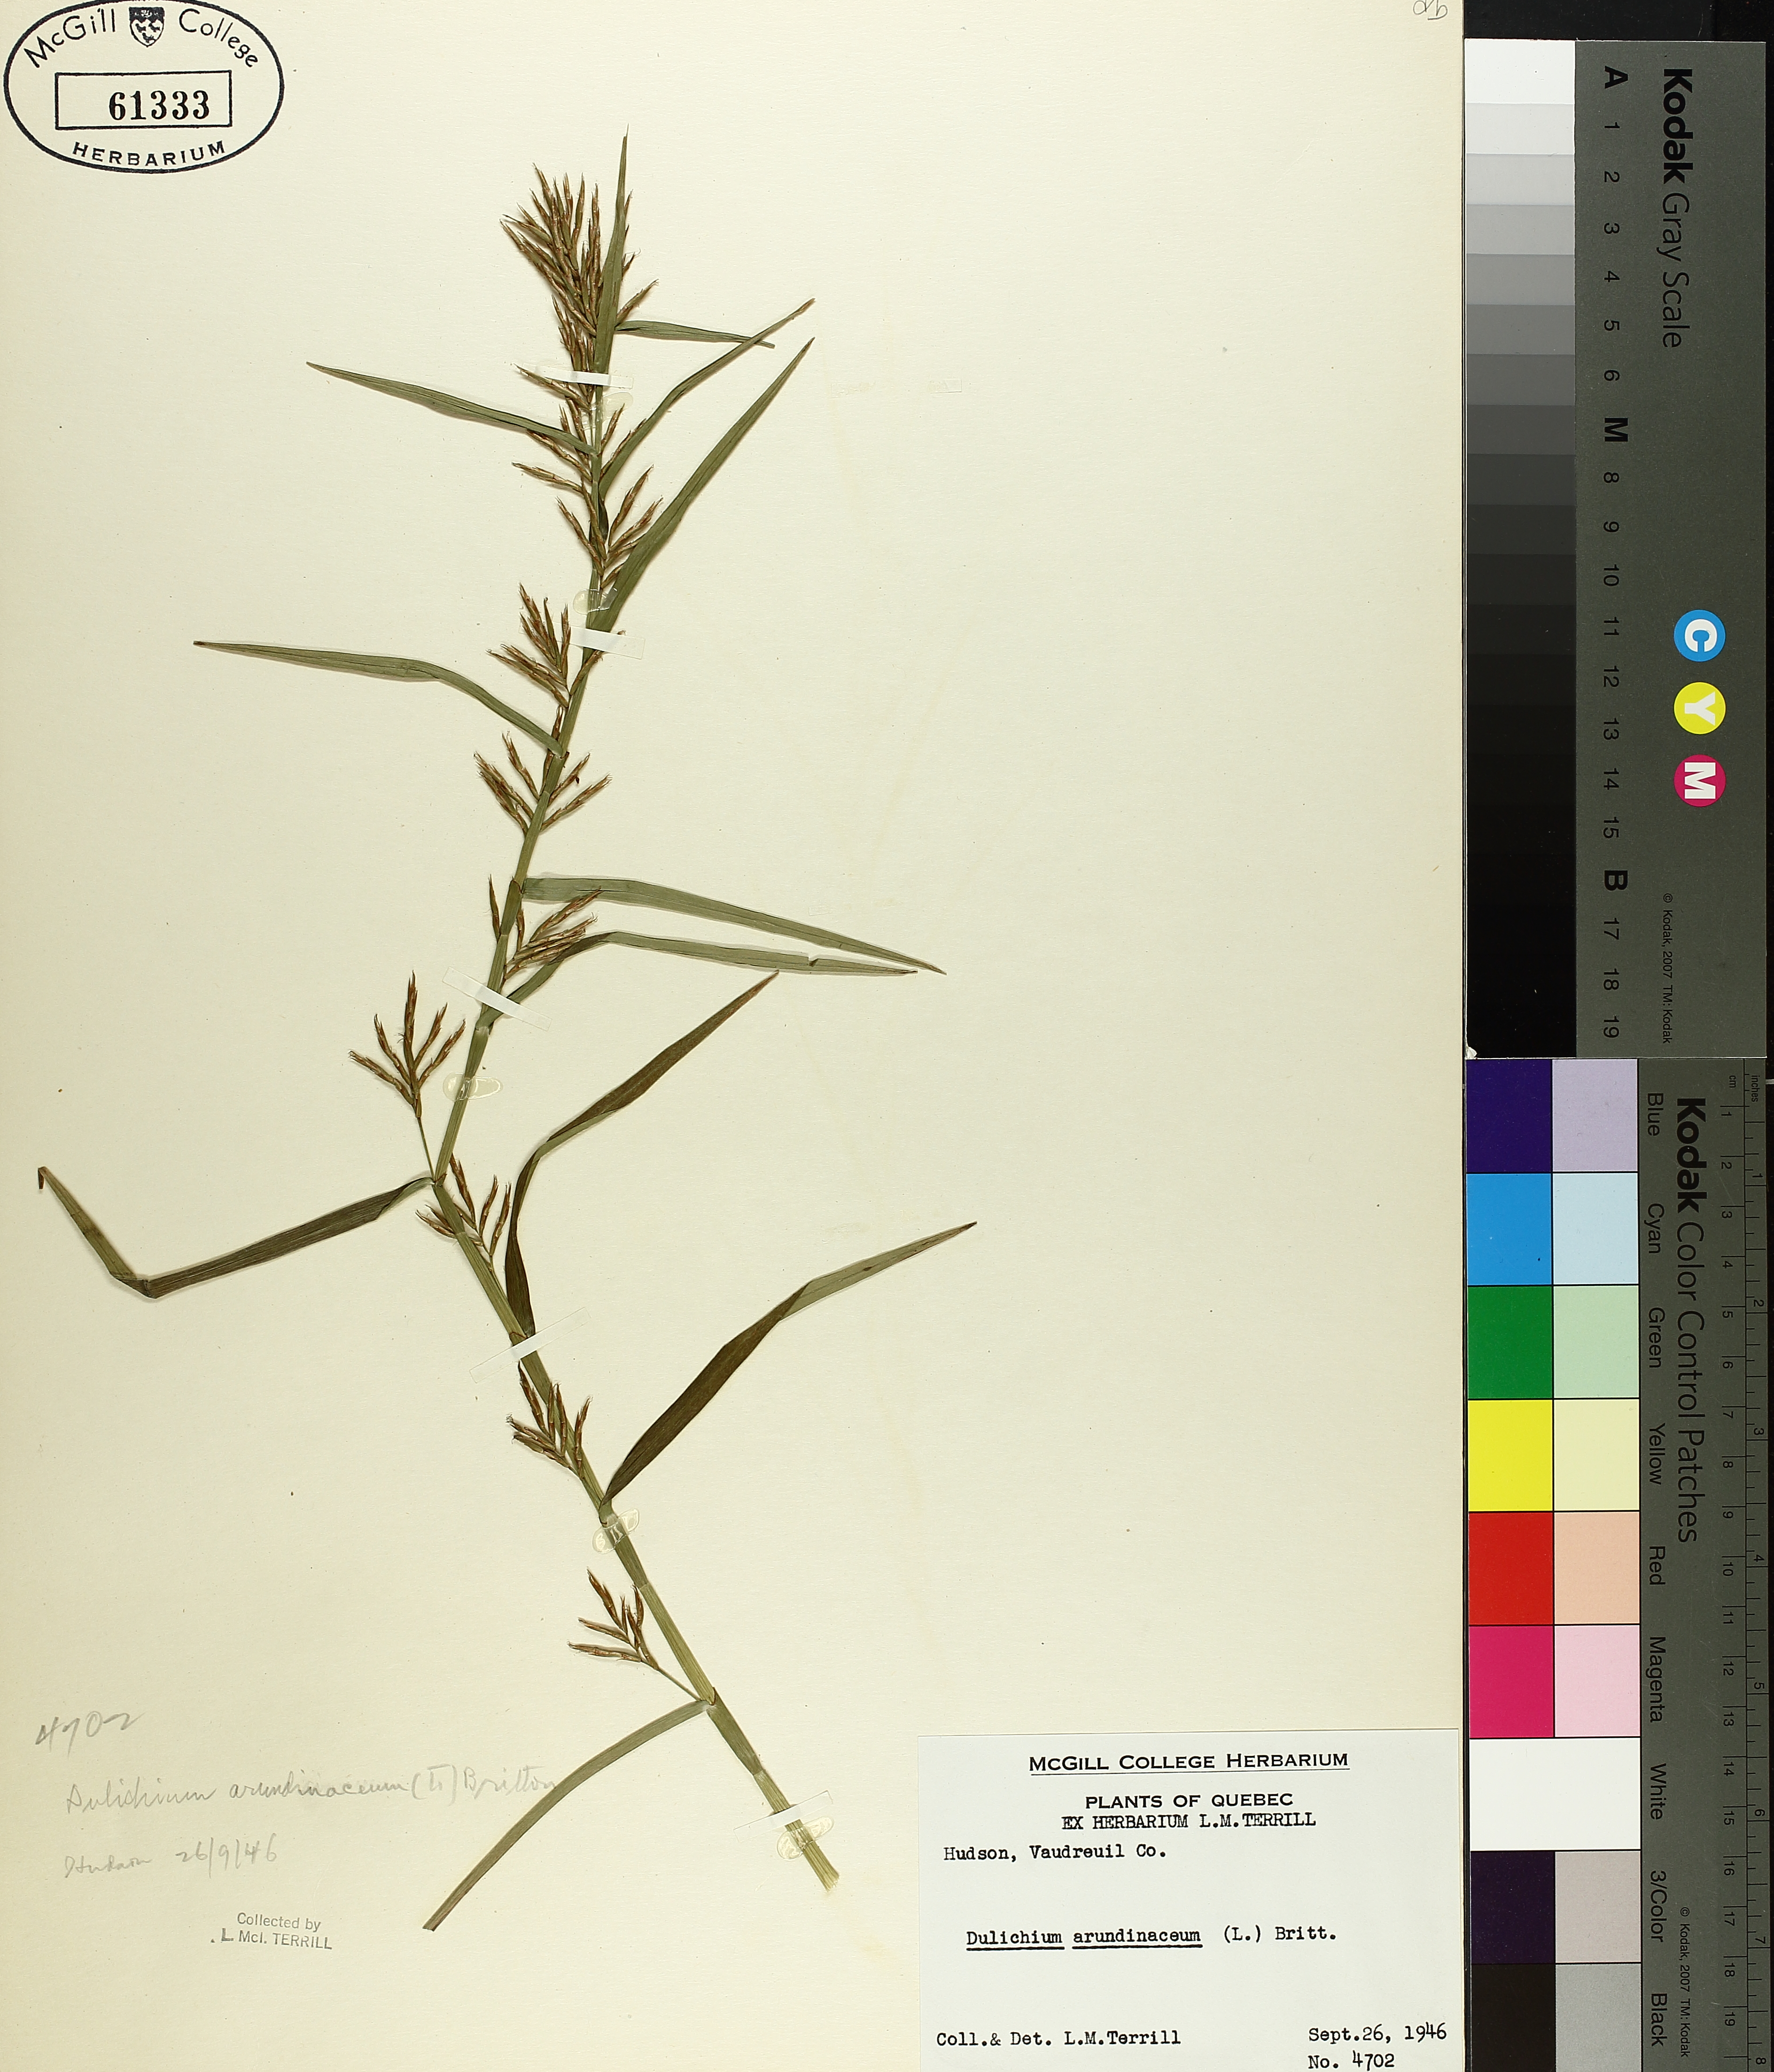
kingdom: Plantae
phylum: Tracheophyta
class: Liliopsida
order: Poales
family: Cyperaceae
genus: Dulichium
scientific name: Dulichium arundinaceum
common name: Three-way sedge
